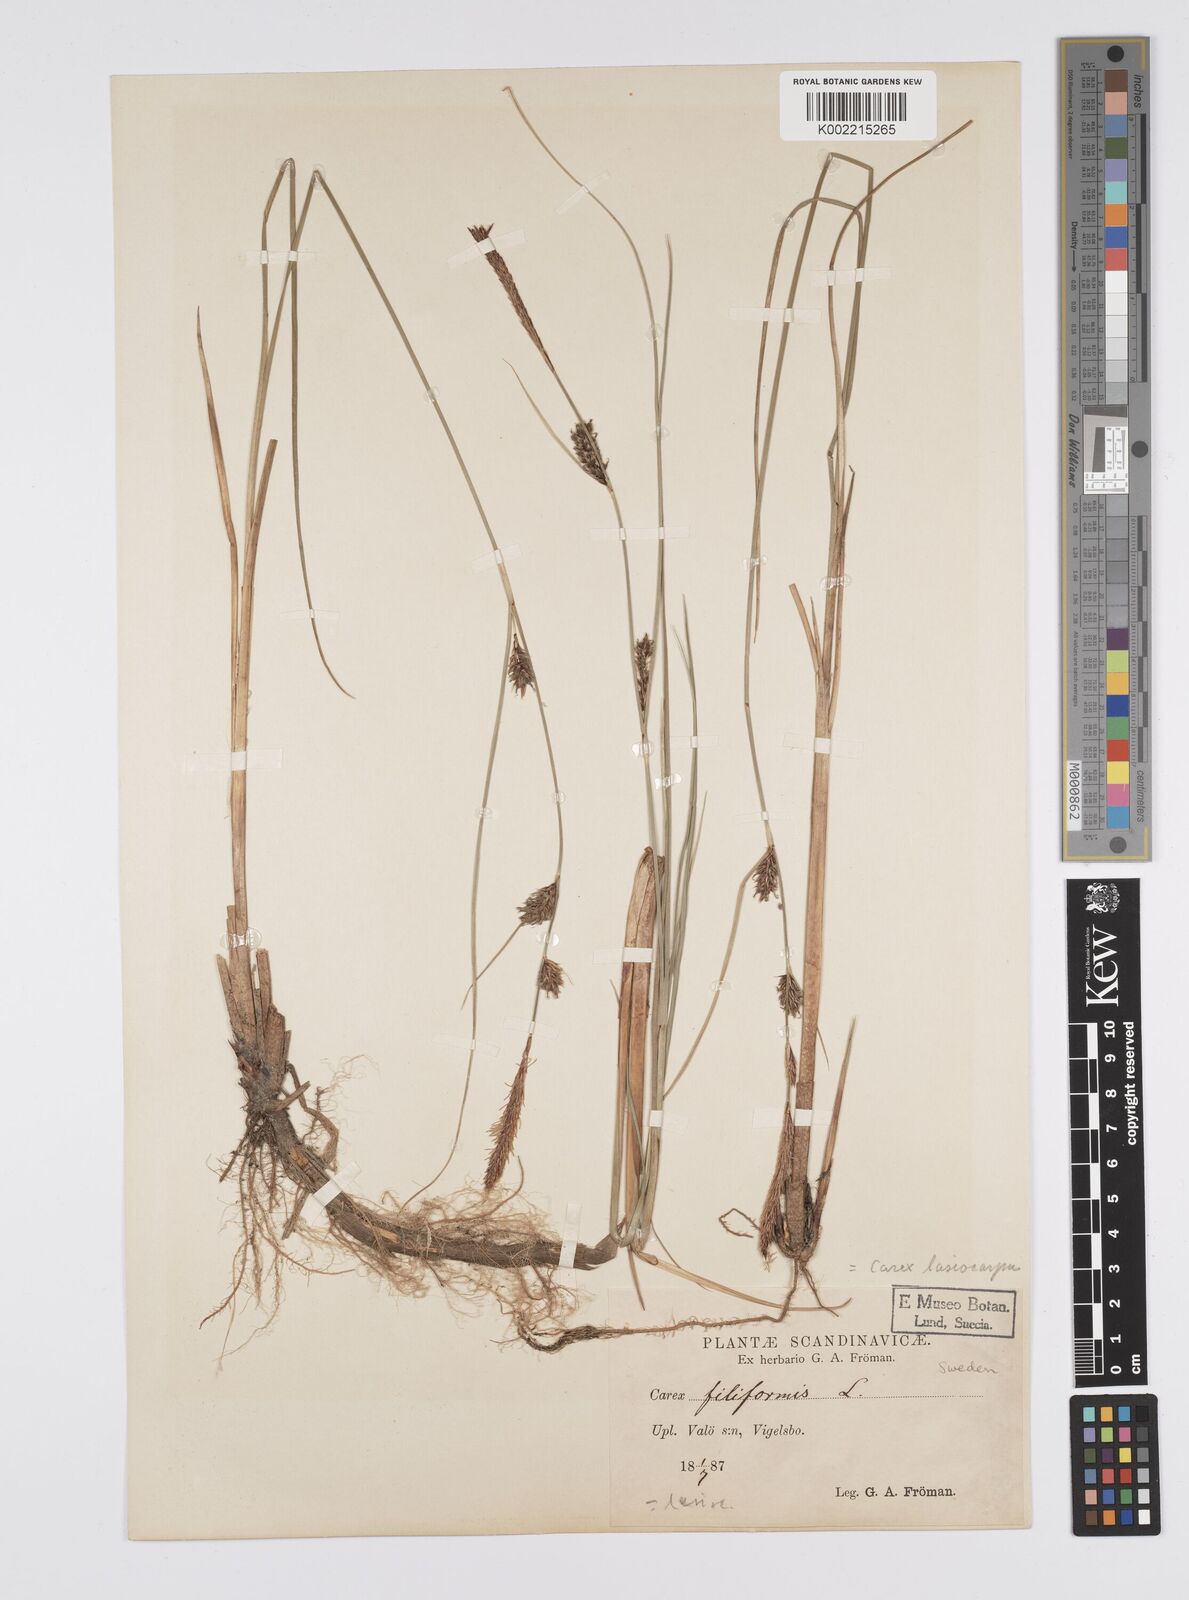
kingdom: Plantae
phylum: Tracheophyta
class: Liliopsida
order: Poales
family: Cyperaceae
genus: Carex
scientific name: Carex lasiocarpa
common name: Slender sedge
